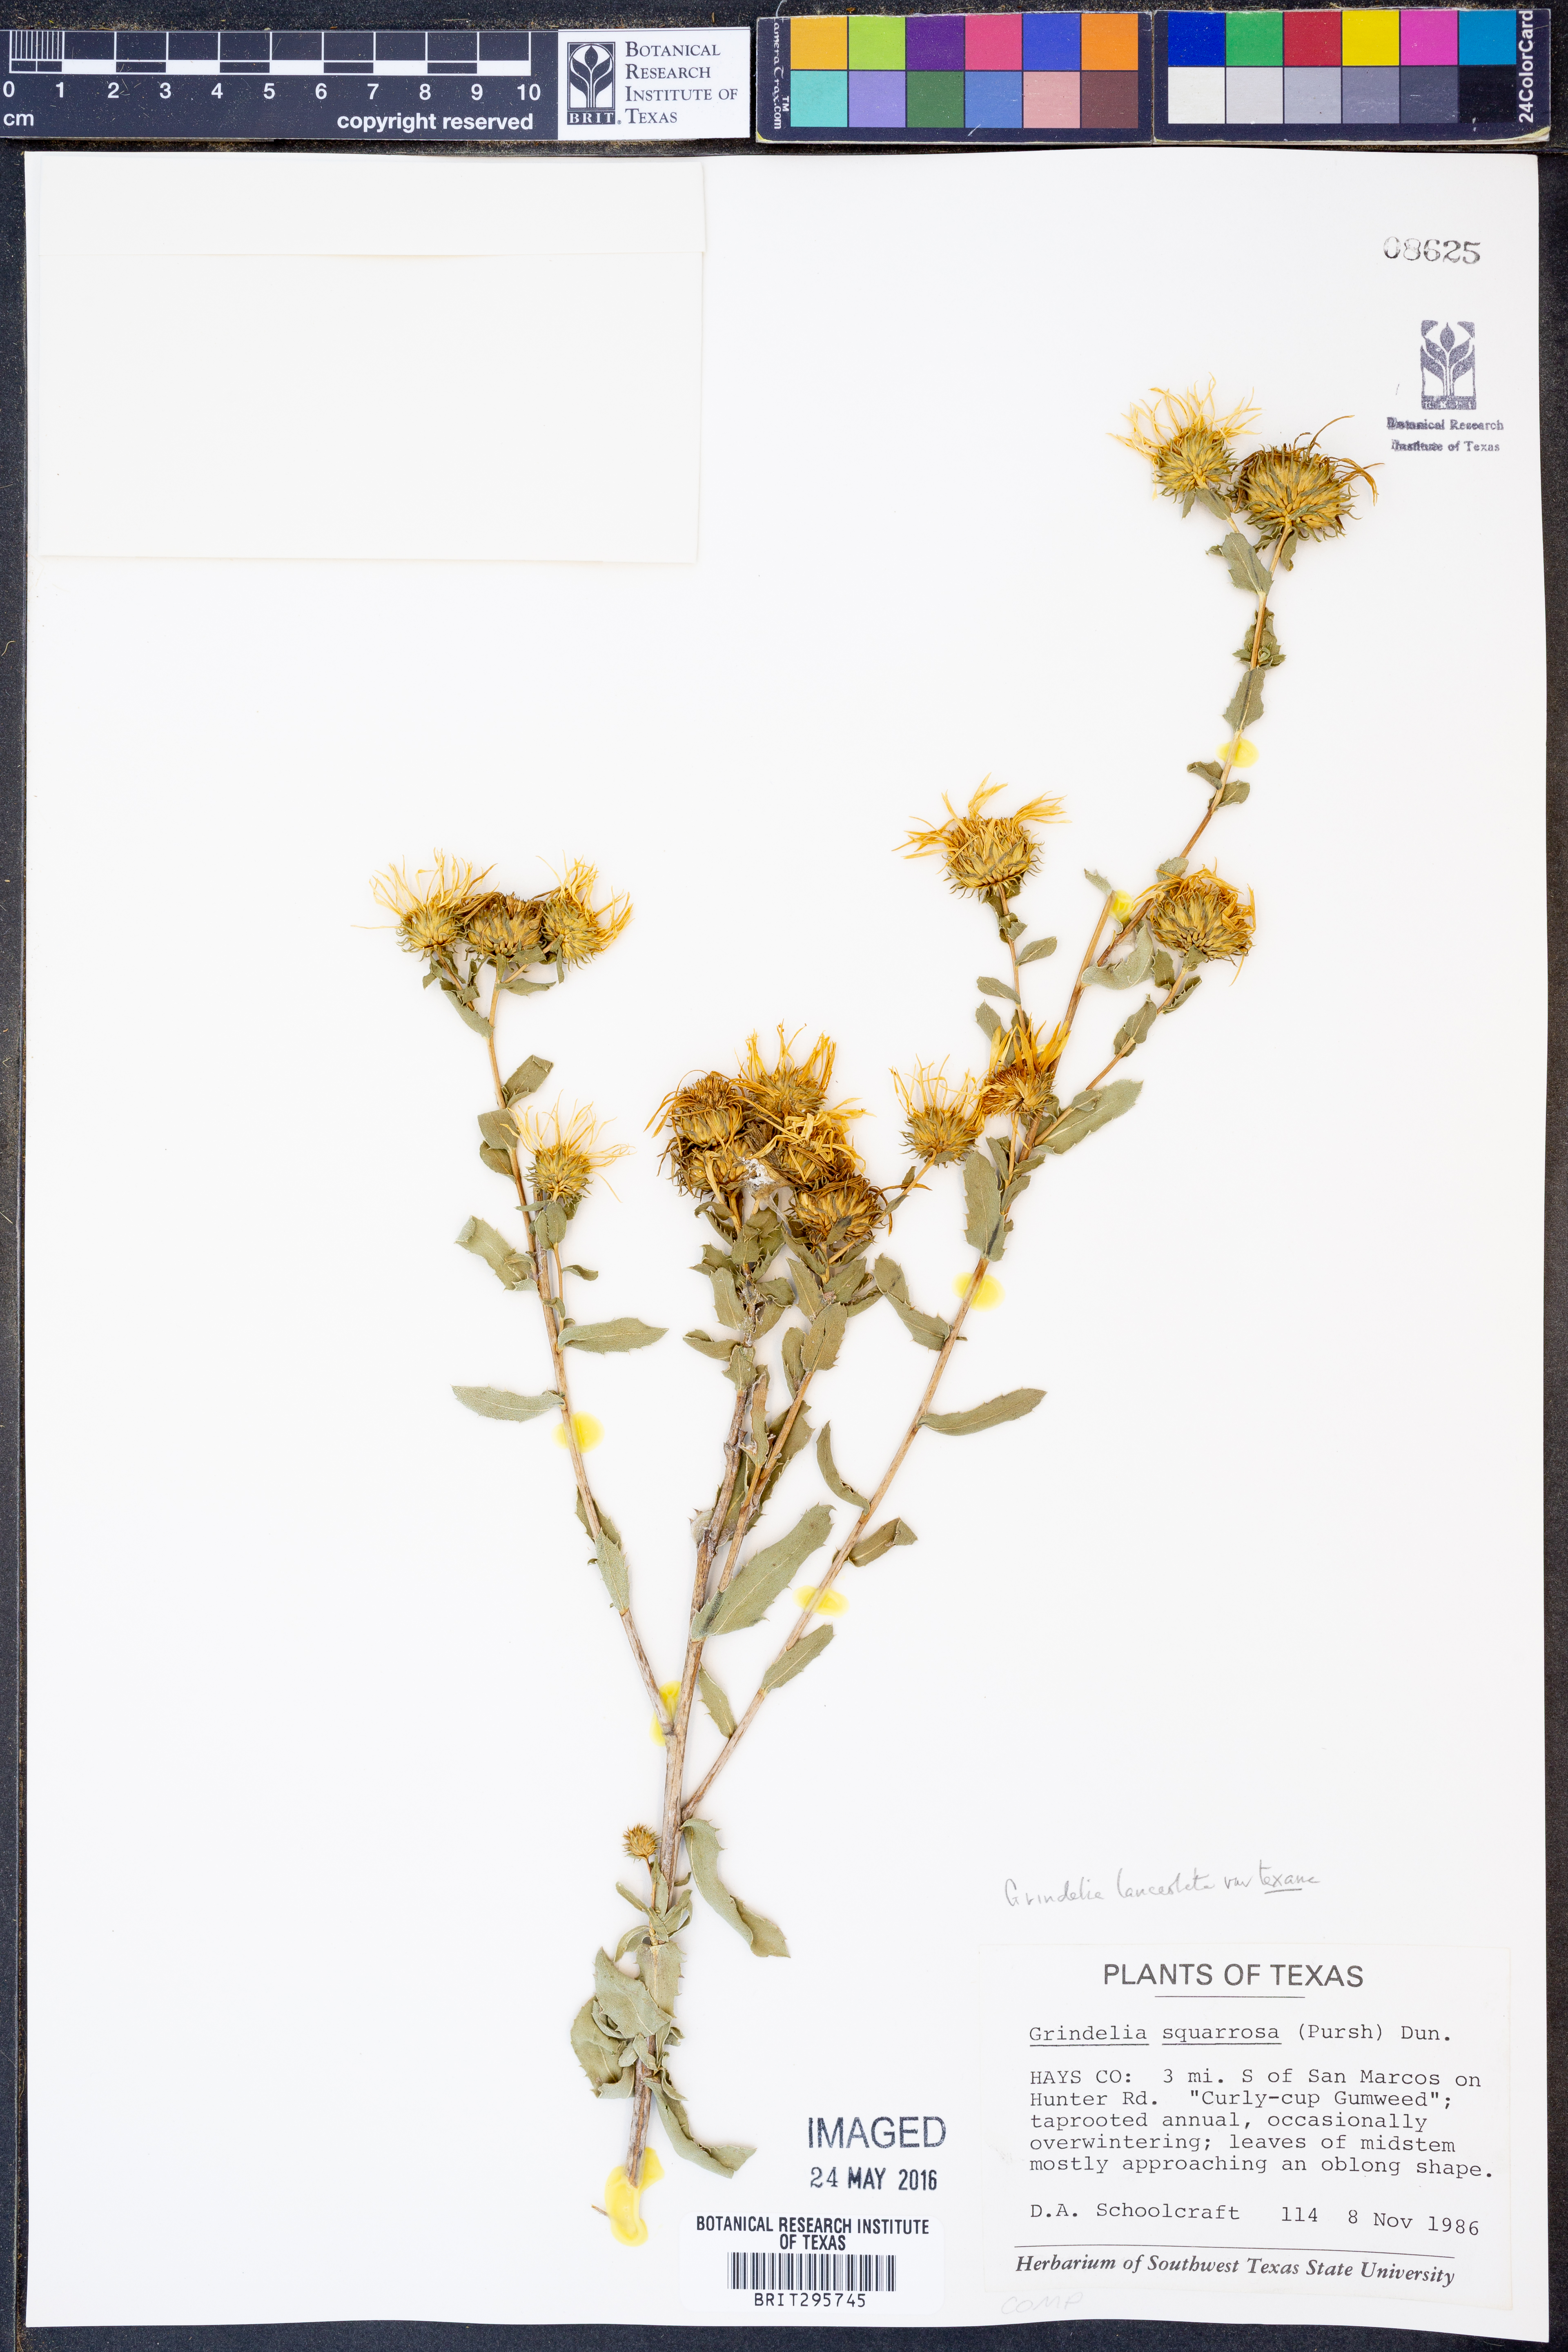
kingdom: Plantae
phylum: Tracheophyta
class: Magnoliopsida
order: Asterales
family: Asteraceae
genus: Grindelia
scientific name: Grindelia texana
